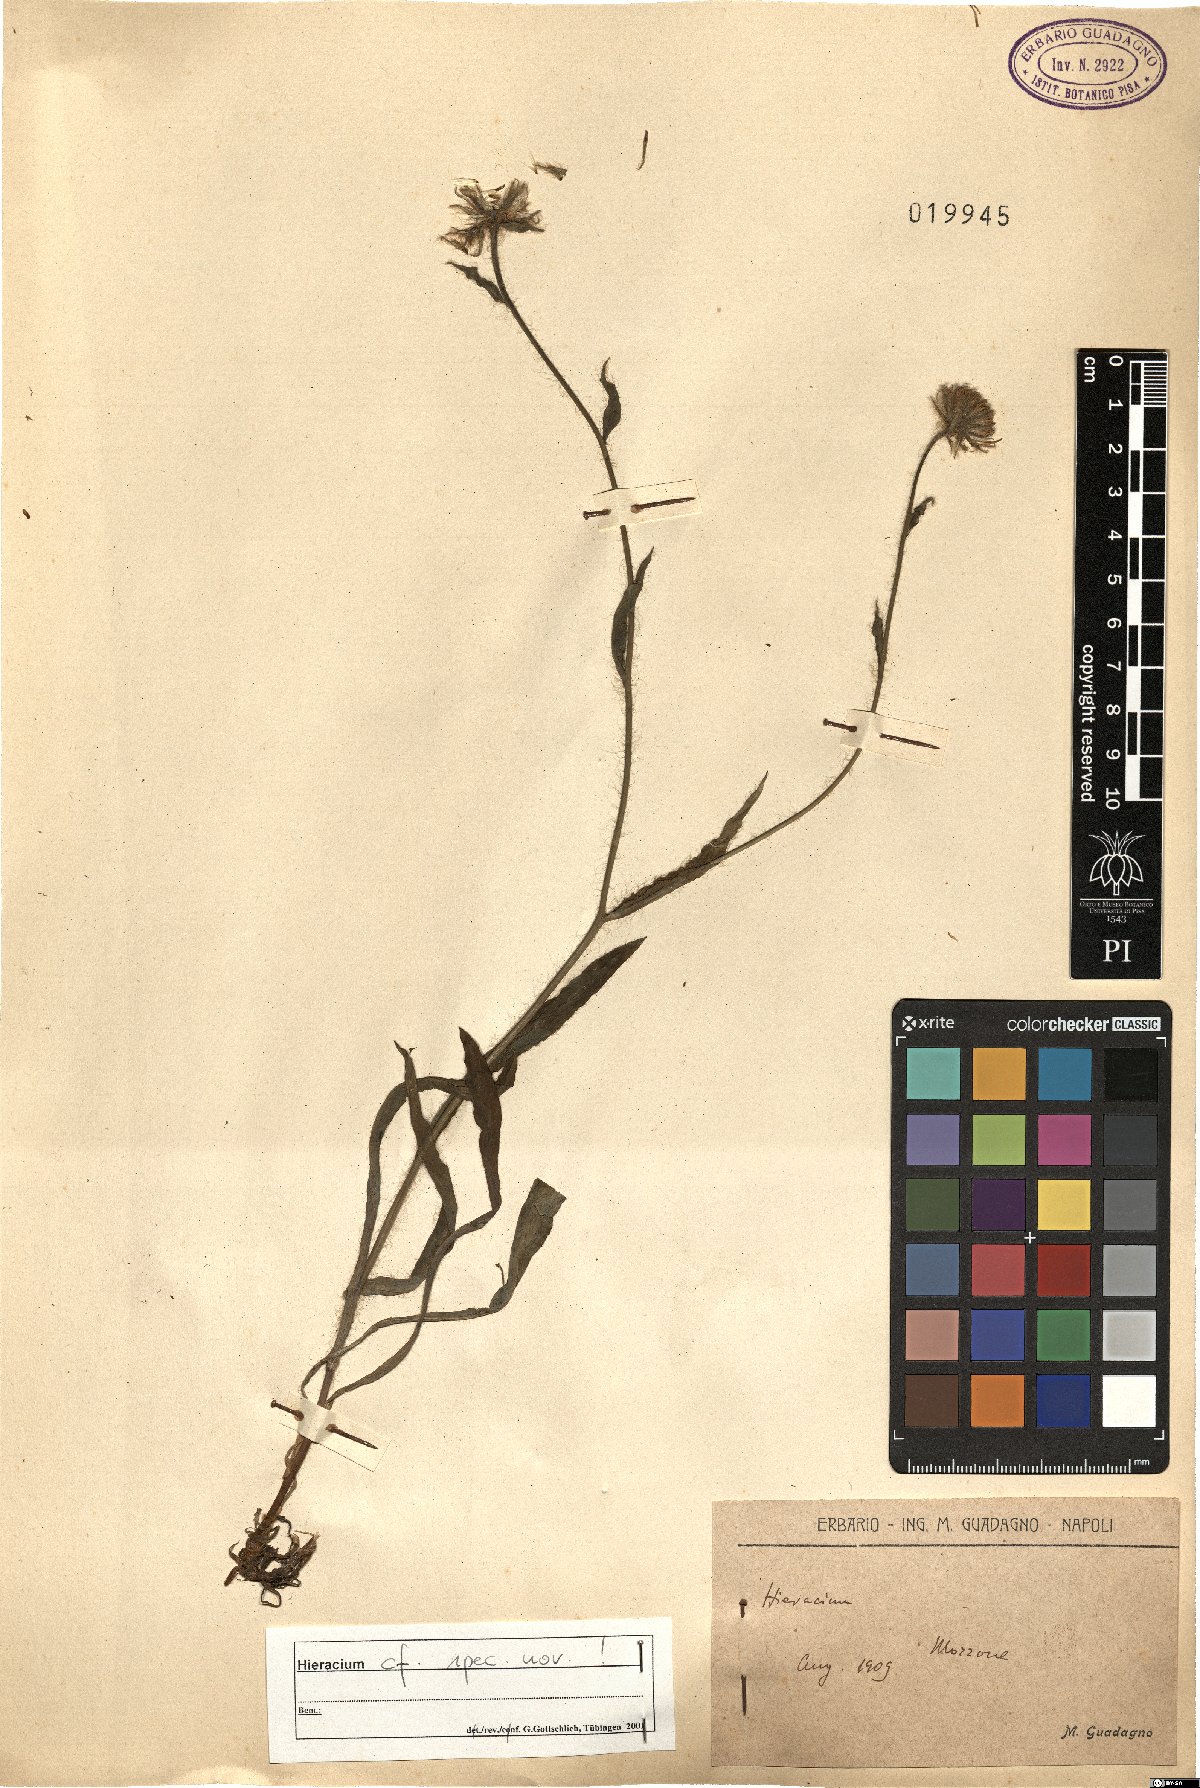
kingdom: Plantae
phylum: Tracheophyta
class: Magnoliopsida
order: Asterales
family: Asteraceae
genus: Hieracium
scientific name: Hieracium
